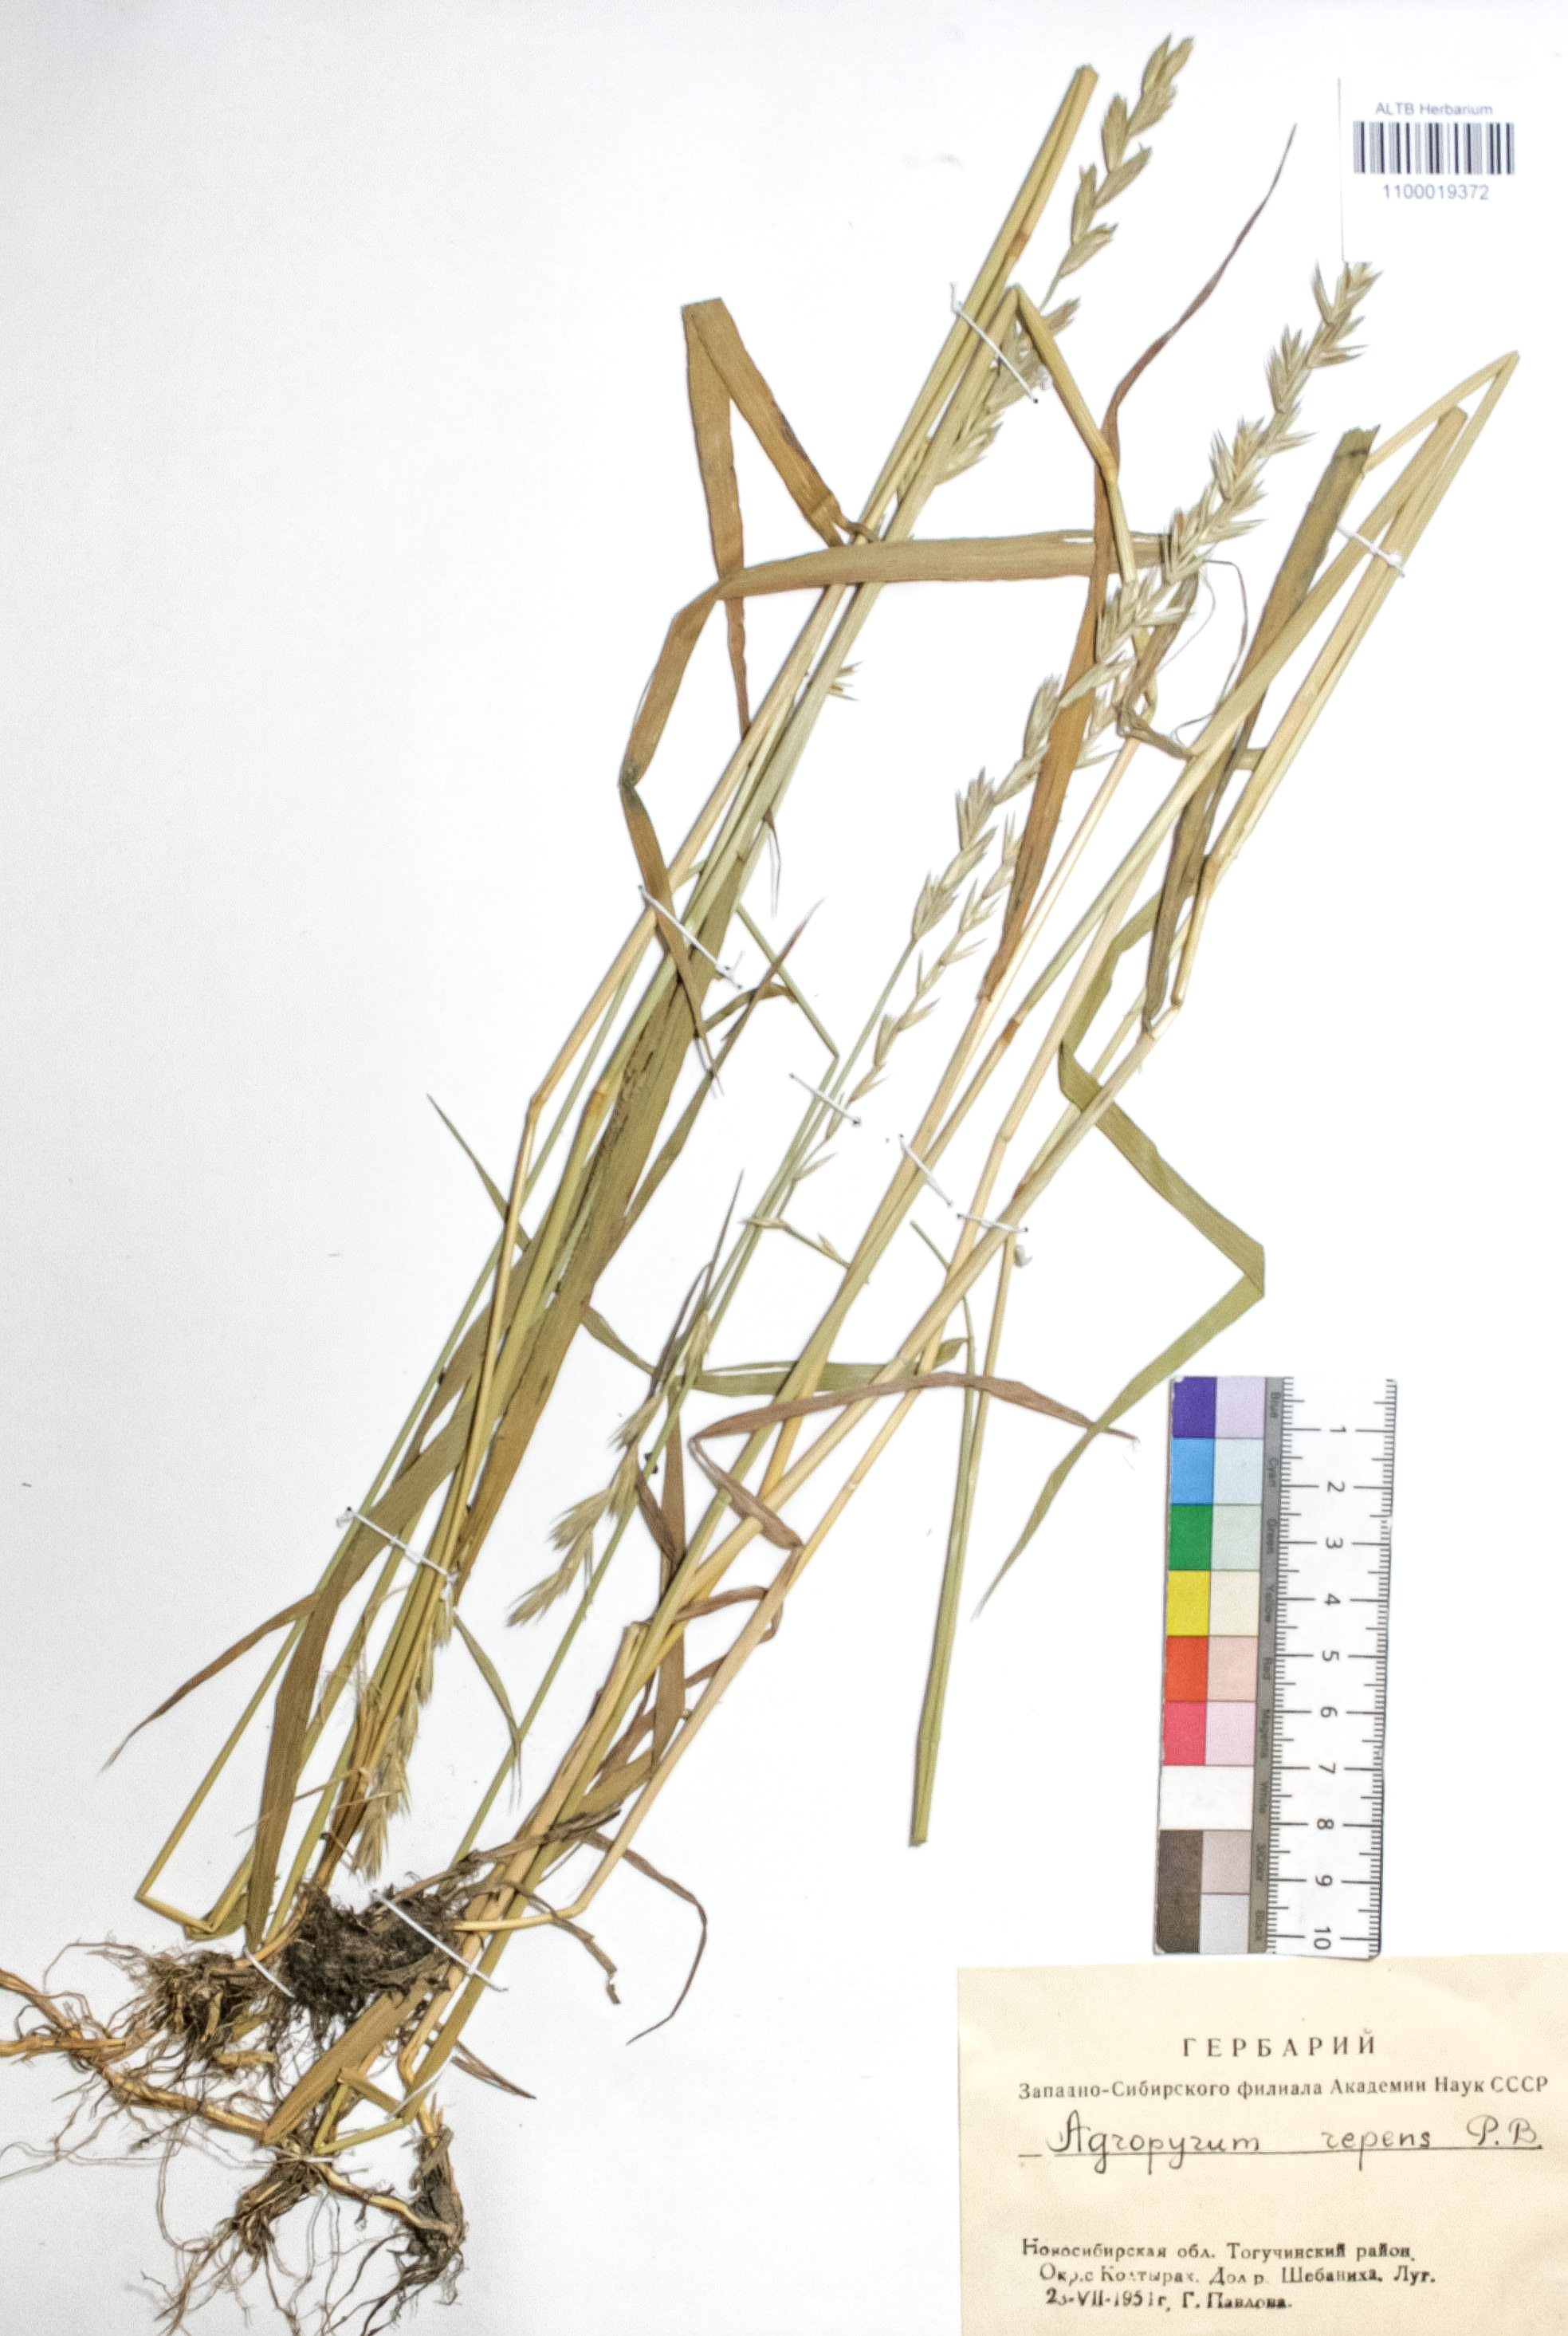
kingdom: Plantae
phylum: Tracheophyta
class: Liliopsida
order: Poales
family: Poaceae
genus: Elymus
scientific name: Elymus repens
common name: Quackgrass
